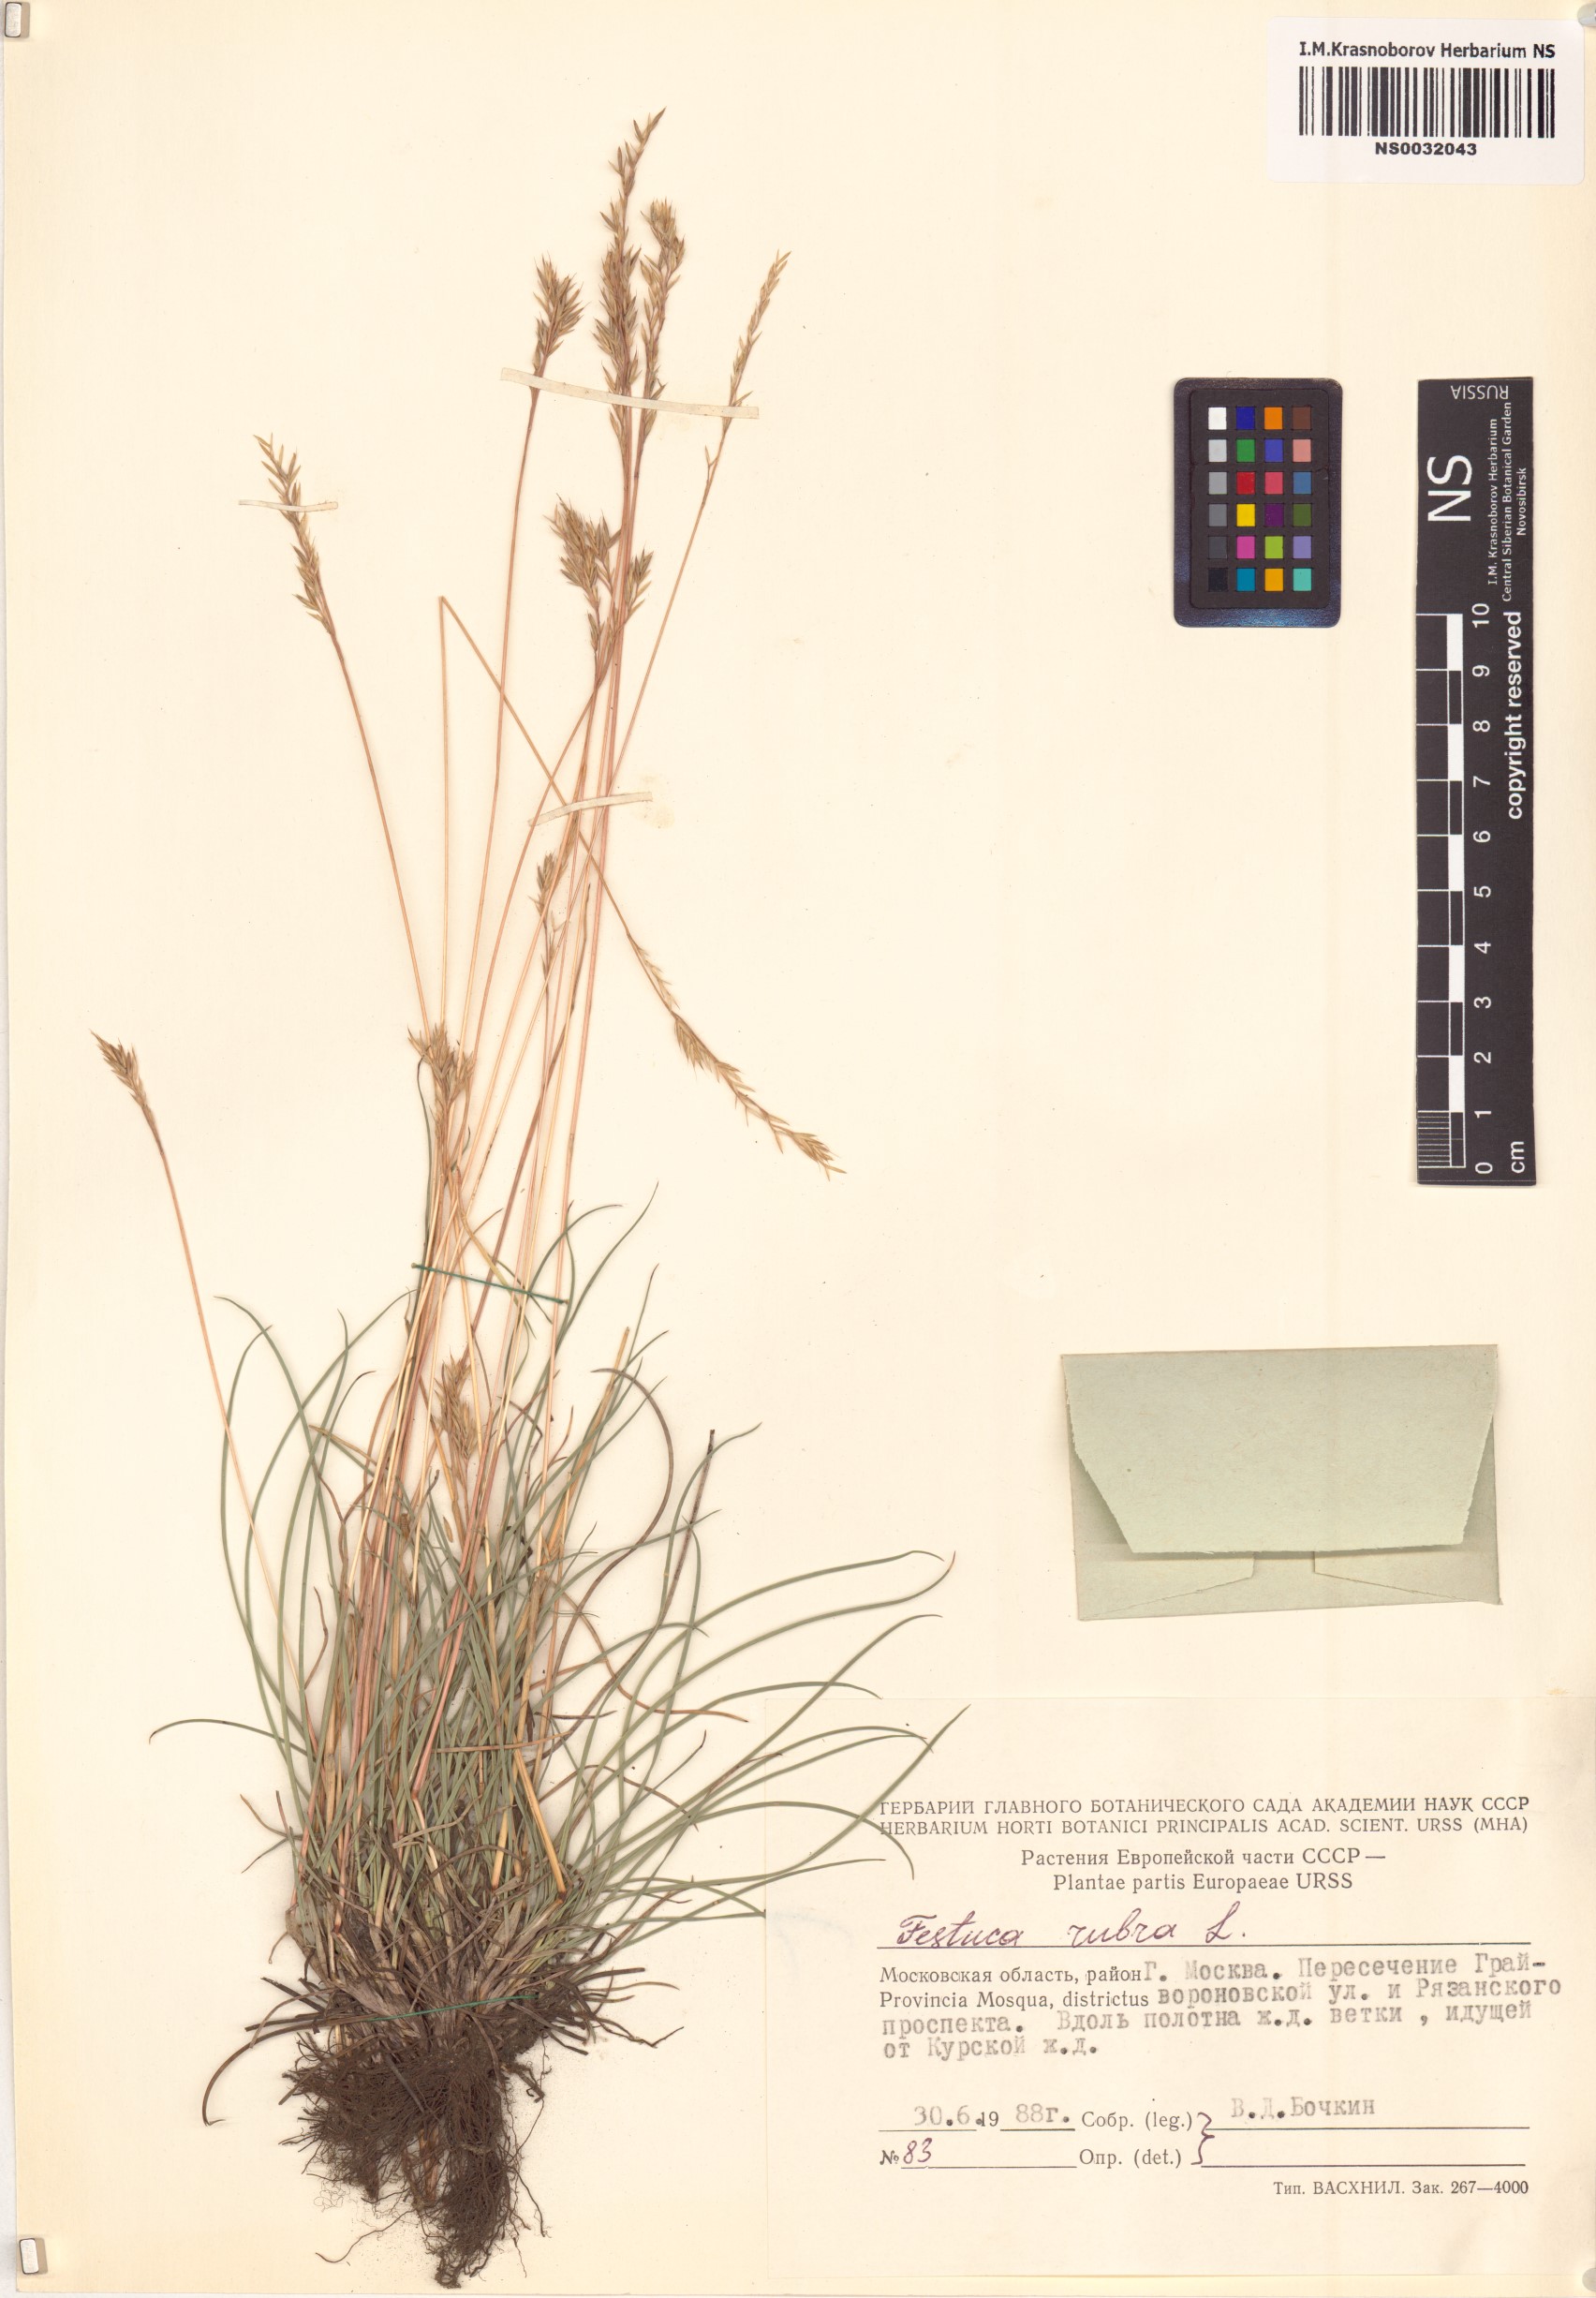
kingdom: Plantae
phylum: Tracheophyta
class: Liliopsida
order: Poales
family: Poaceae
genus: Festuca
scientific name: Festuca rubra
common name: Red fescue
